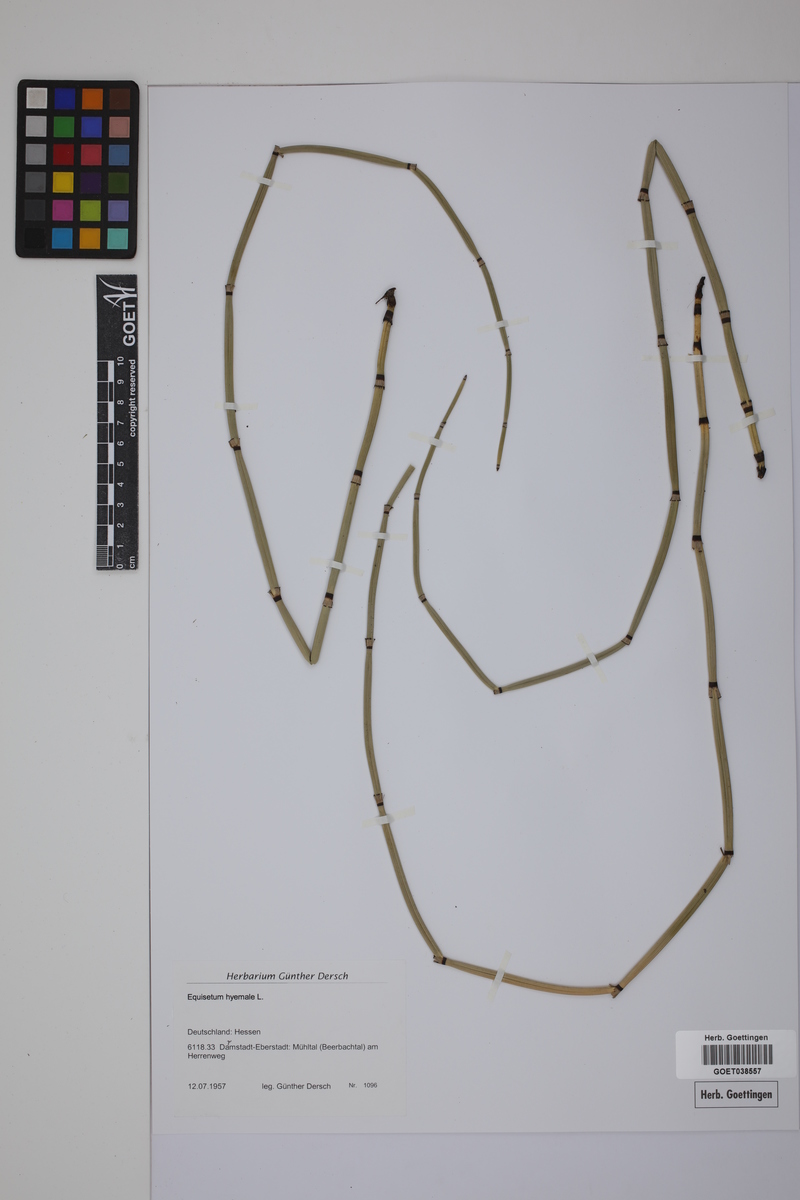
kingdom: Plantae
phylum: Tracheophyta
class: Polypodiopsida
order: Equisetales
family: Equisetaceae
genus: Equisetum
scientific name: Equisetum hyemale
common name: Rough horsetail
